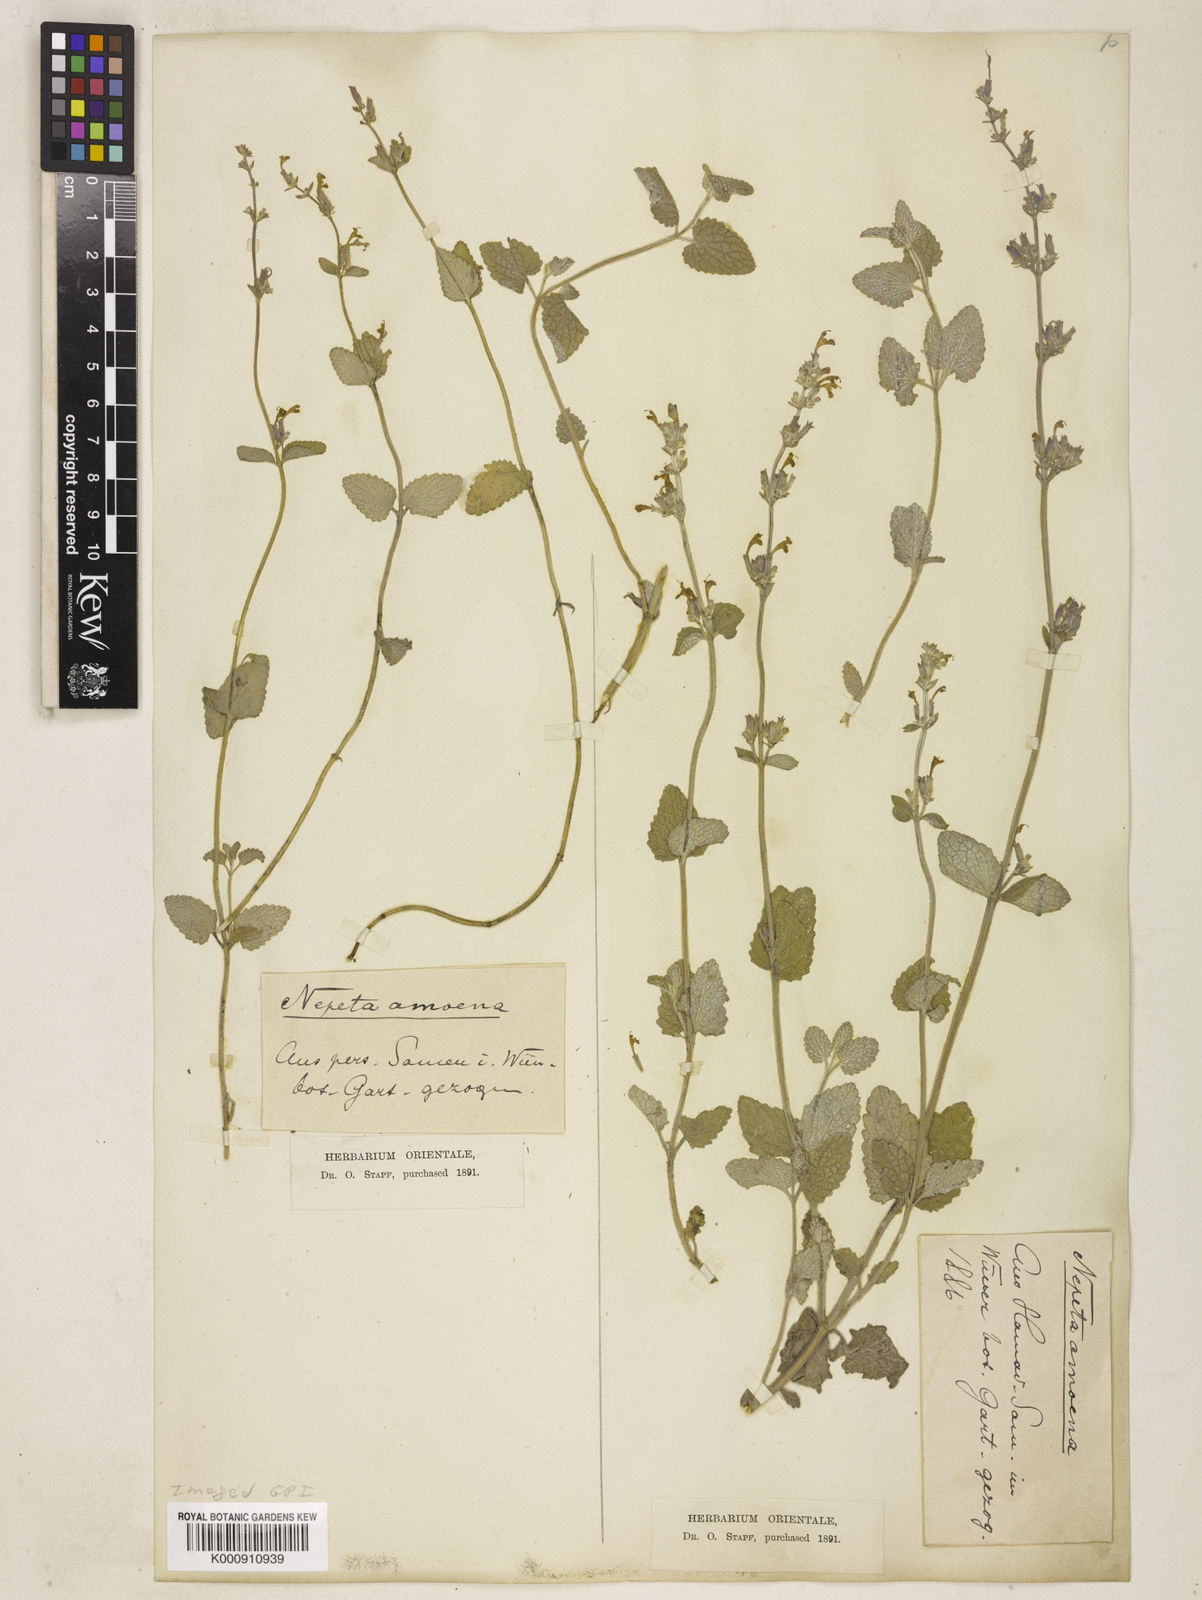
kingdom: Plantae
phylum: Tracheophyta
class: Magnoliopsida
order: Lamiales
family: Lamiaceae
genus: Nepeta
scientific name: Nepeta amoena
